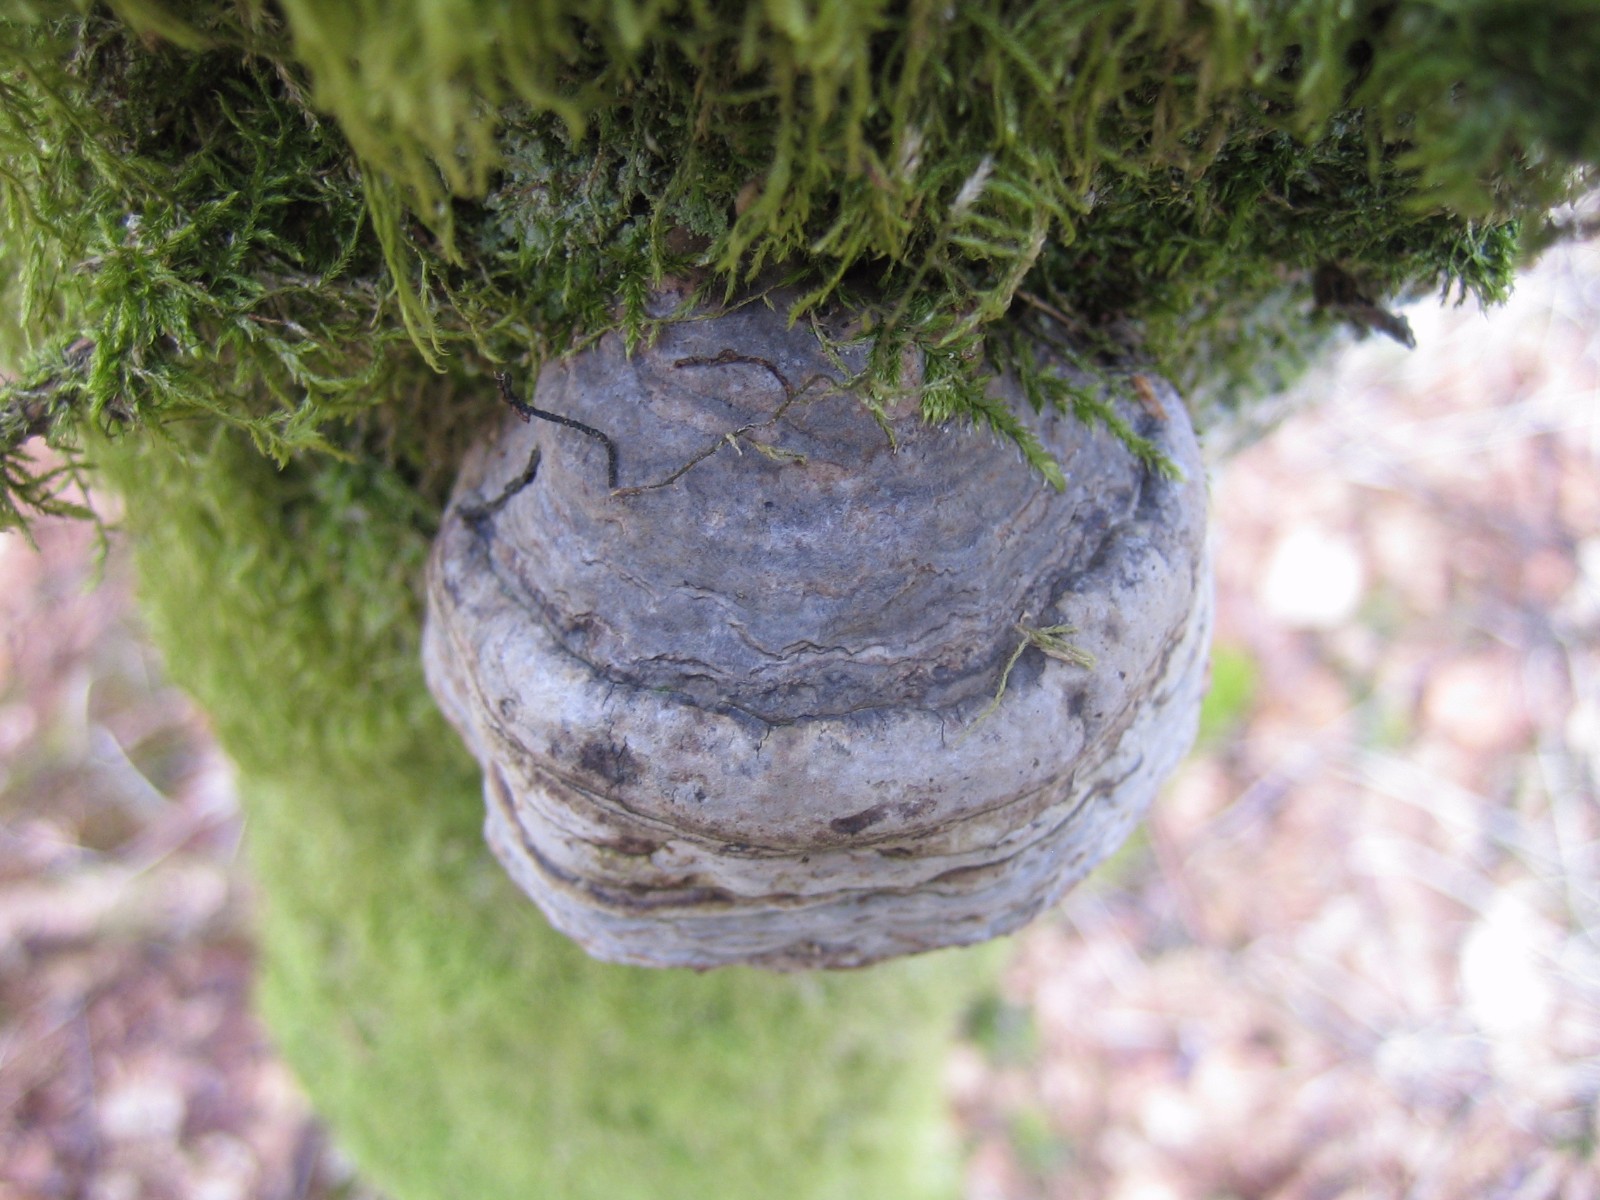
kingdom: Fungi
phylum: Basidiomycota
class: Agaricomycetes
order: Polyporales
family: Polyporaceae
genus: Fomes
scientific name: Fomes fomentarius
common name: tøndersvamp
